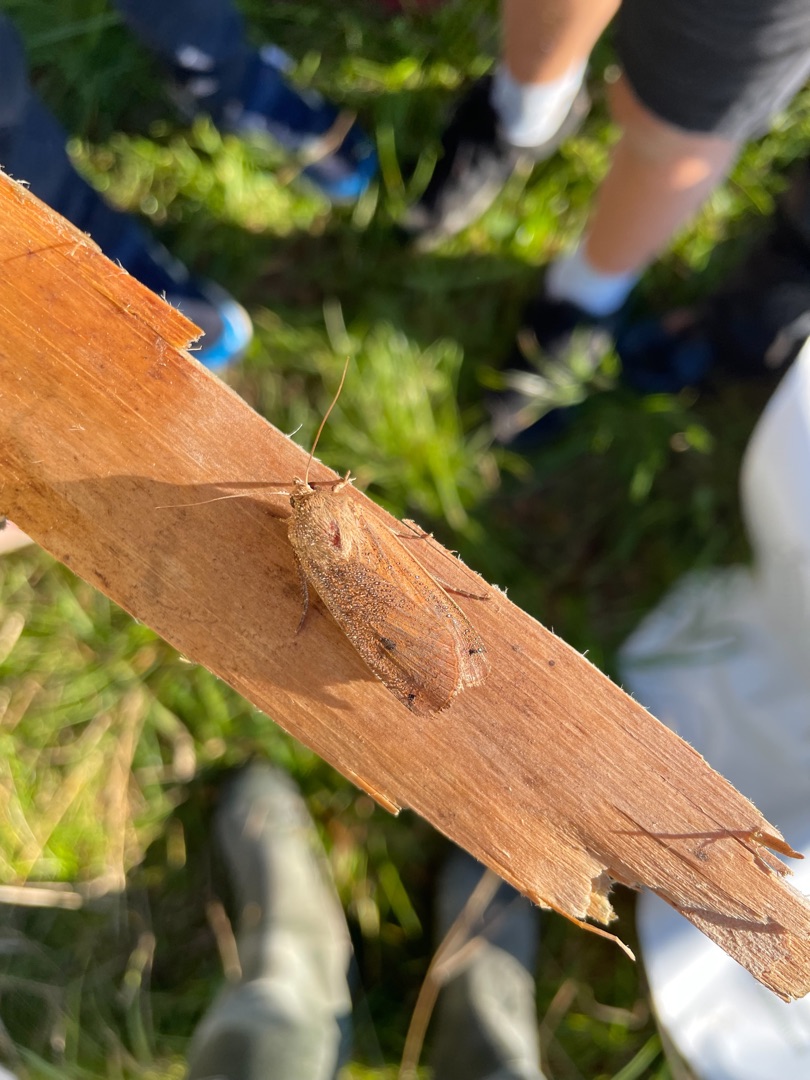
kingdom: Animalia
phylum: Arthropoda
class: Insecta
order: Lepidoptera
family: Noctuidae
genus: Noctua
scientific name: Noctua pronuba
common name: Stor smutugle
